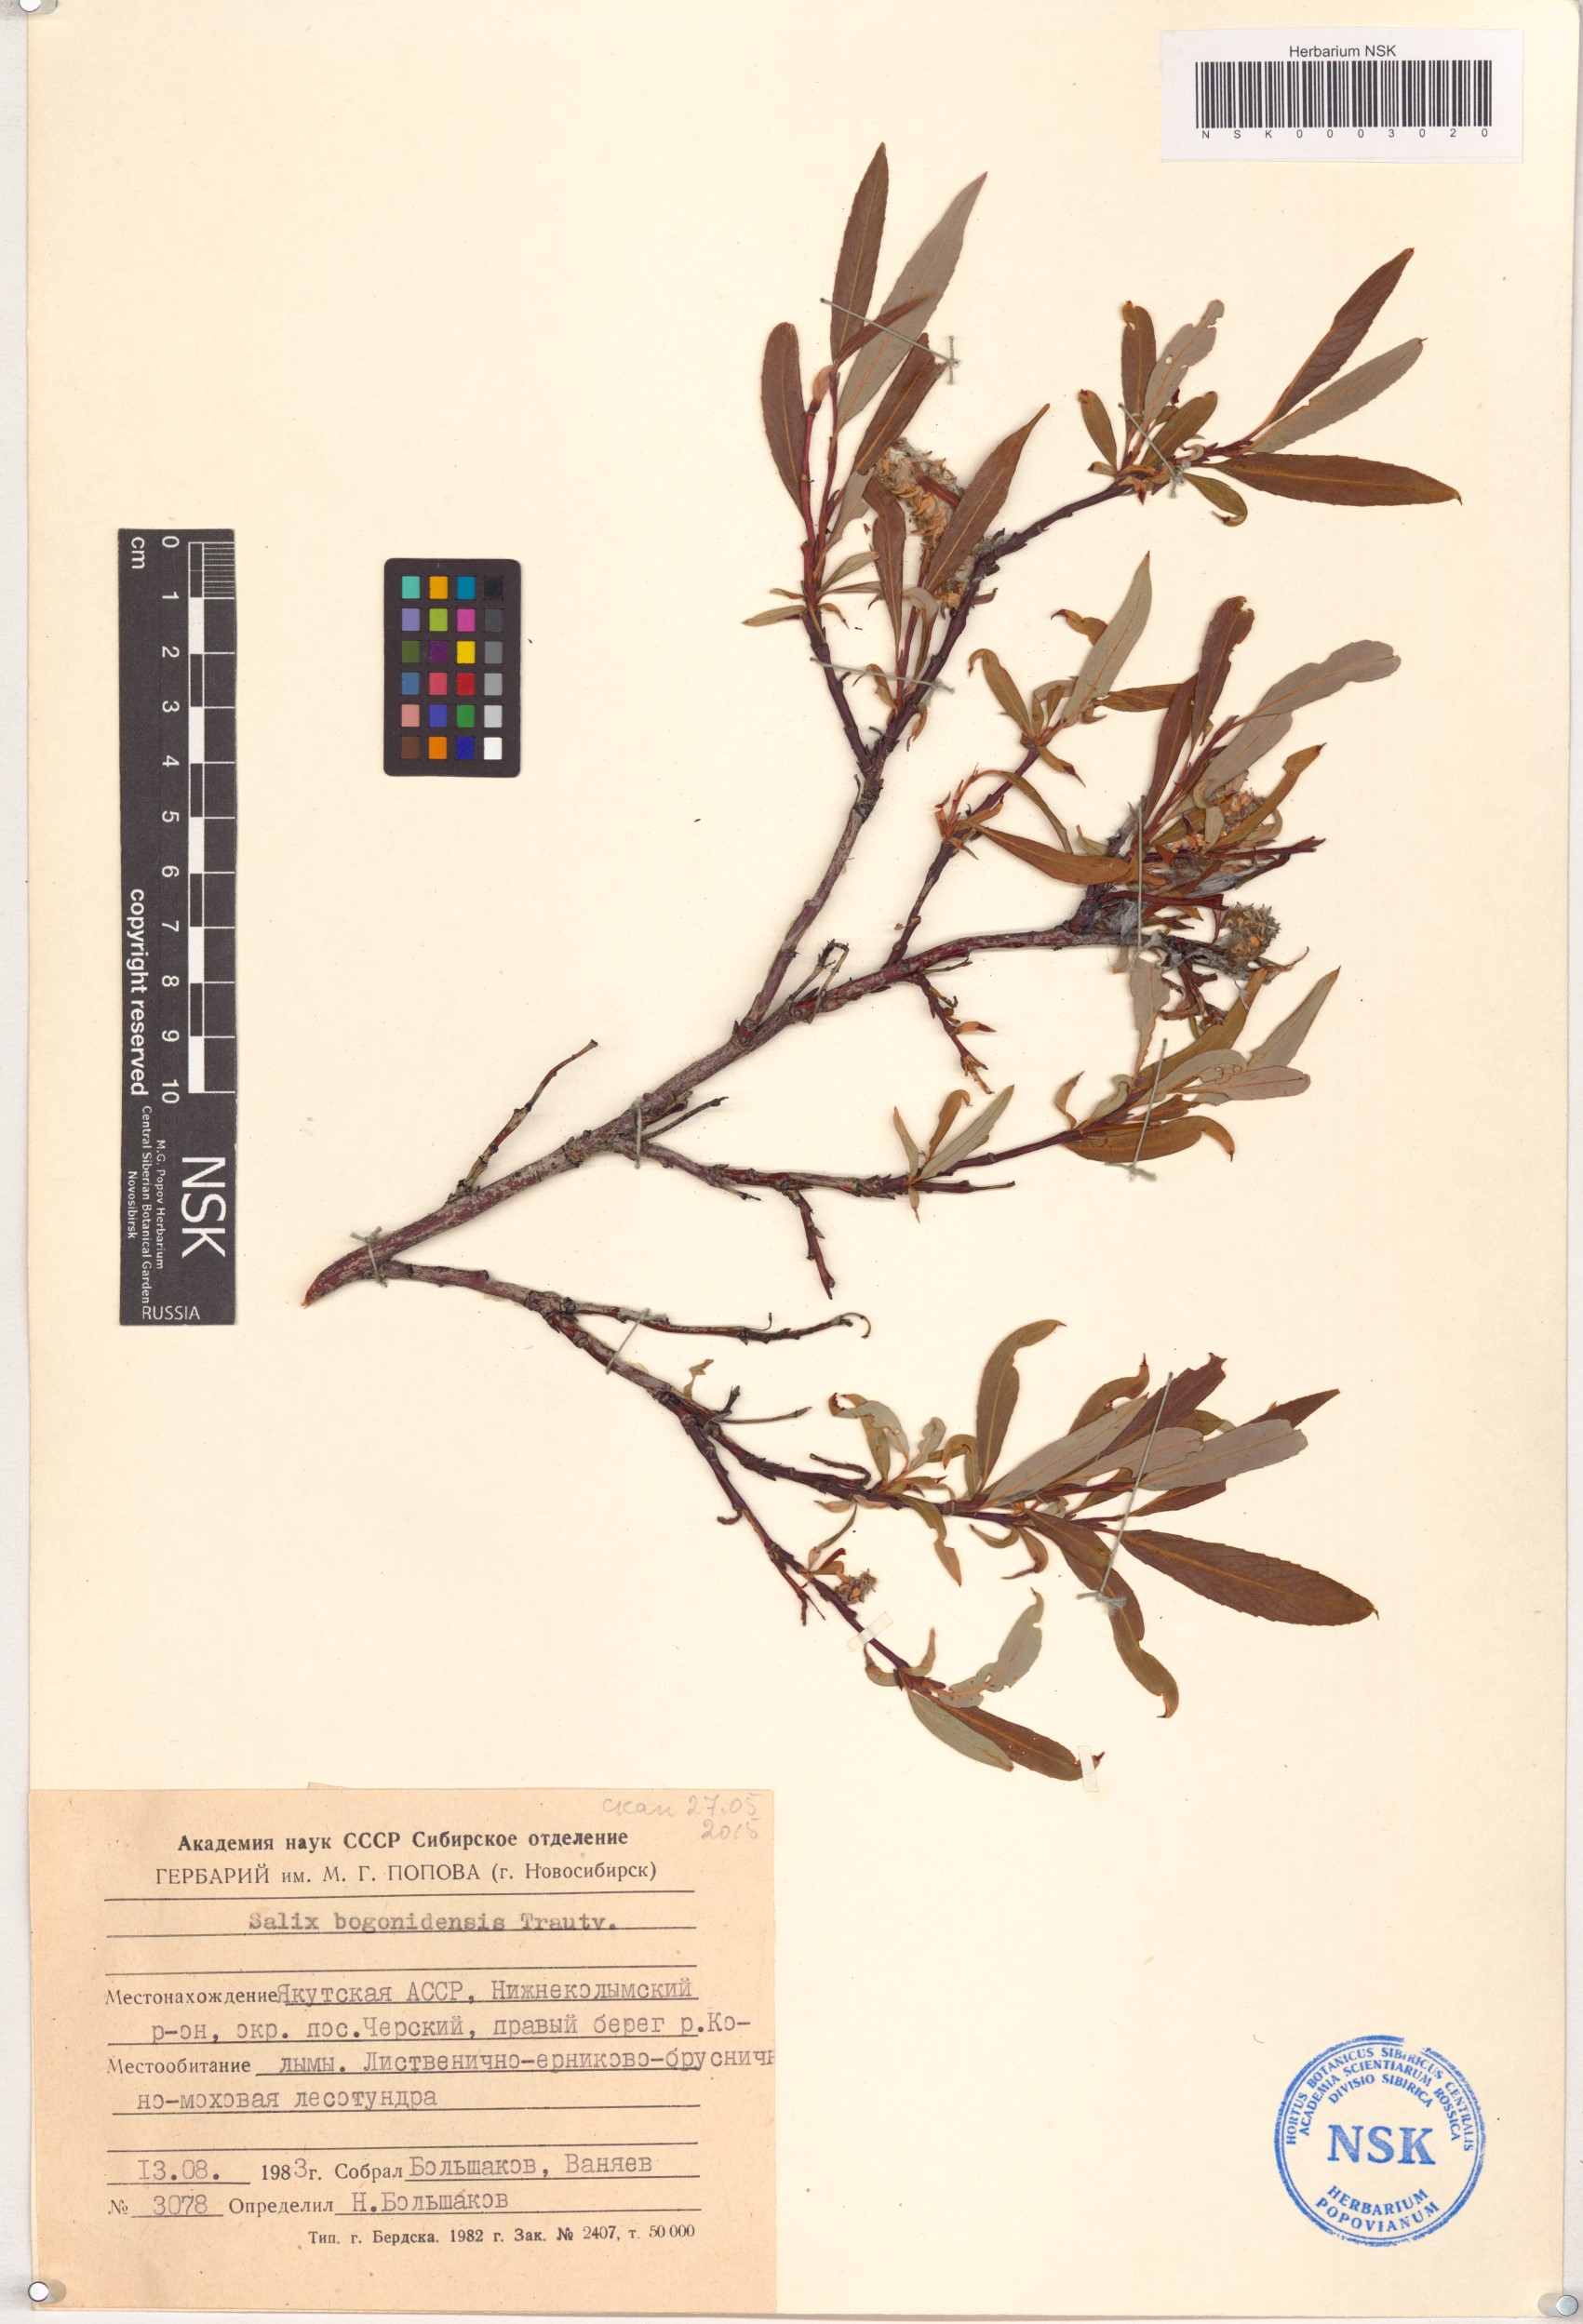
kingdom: Plantae
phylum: Tracheophyta
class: Magnoliopsida
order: Malpighiales
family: Salicaceae
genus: Salix
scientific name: Salix boganidensis
